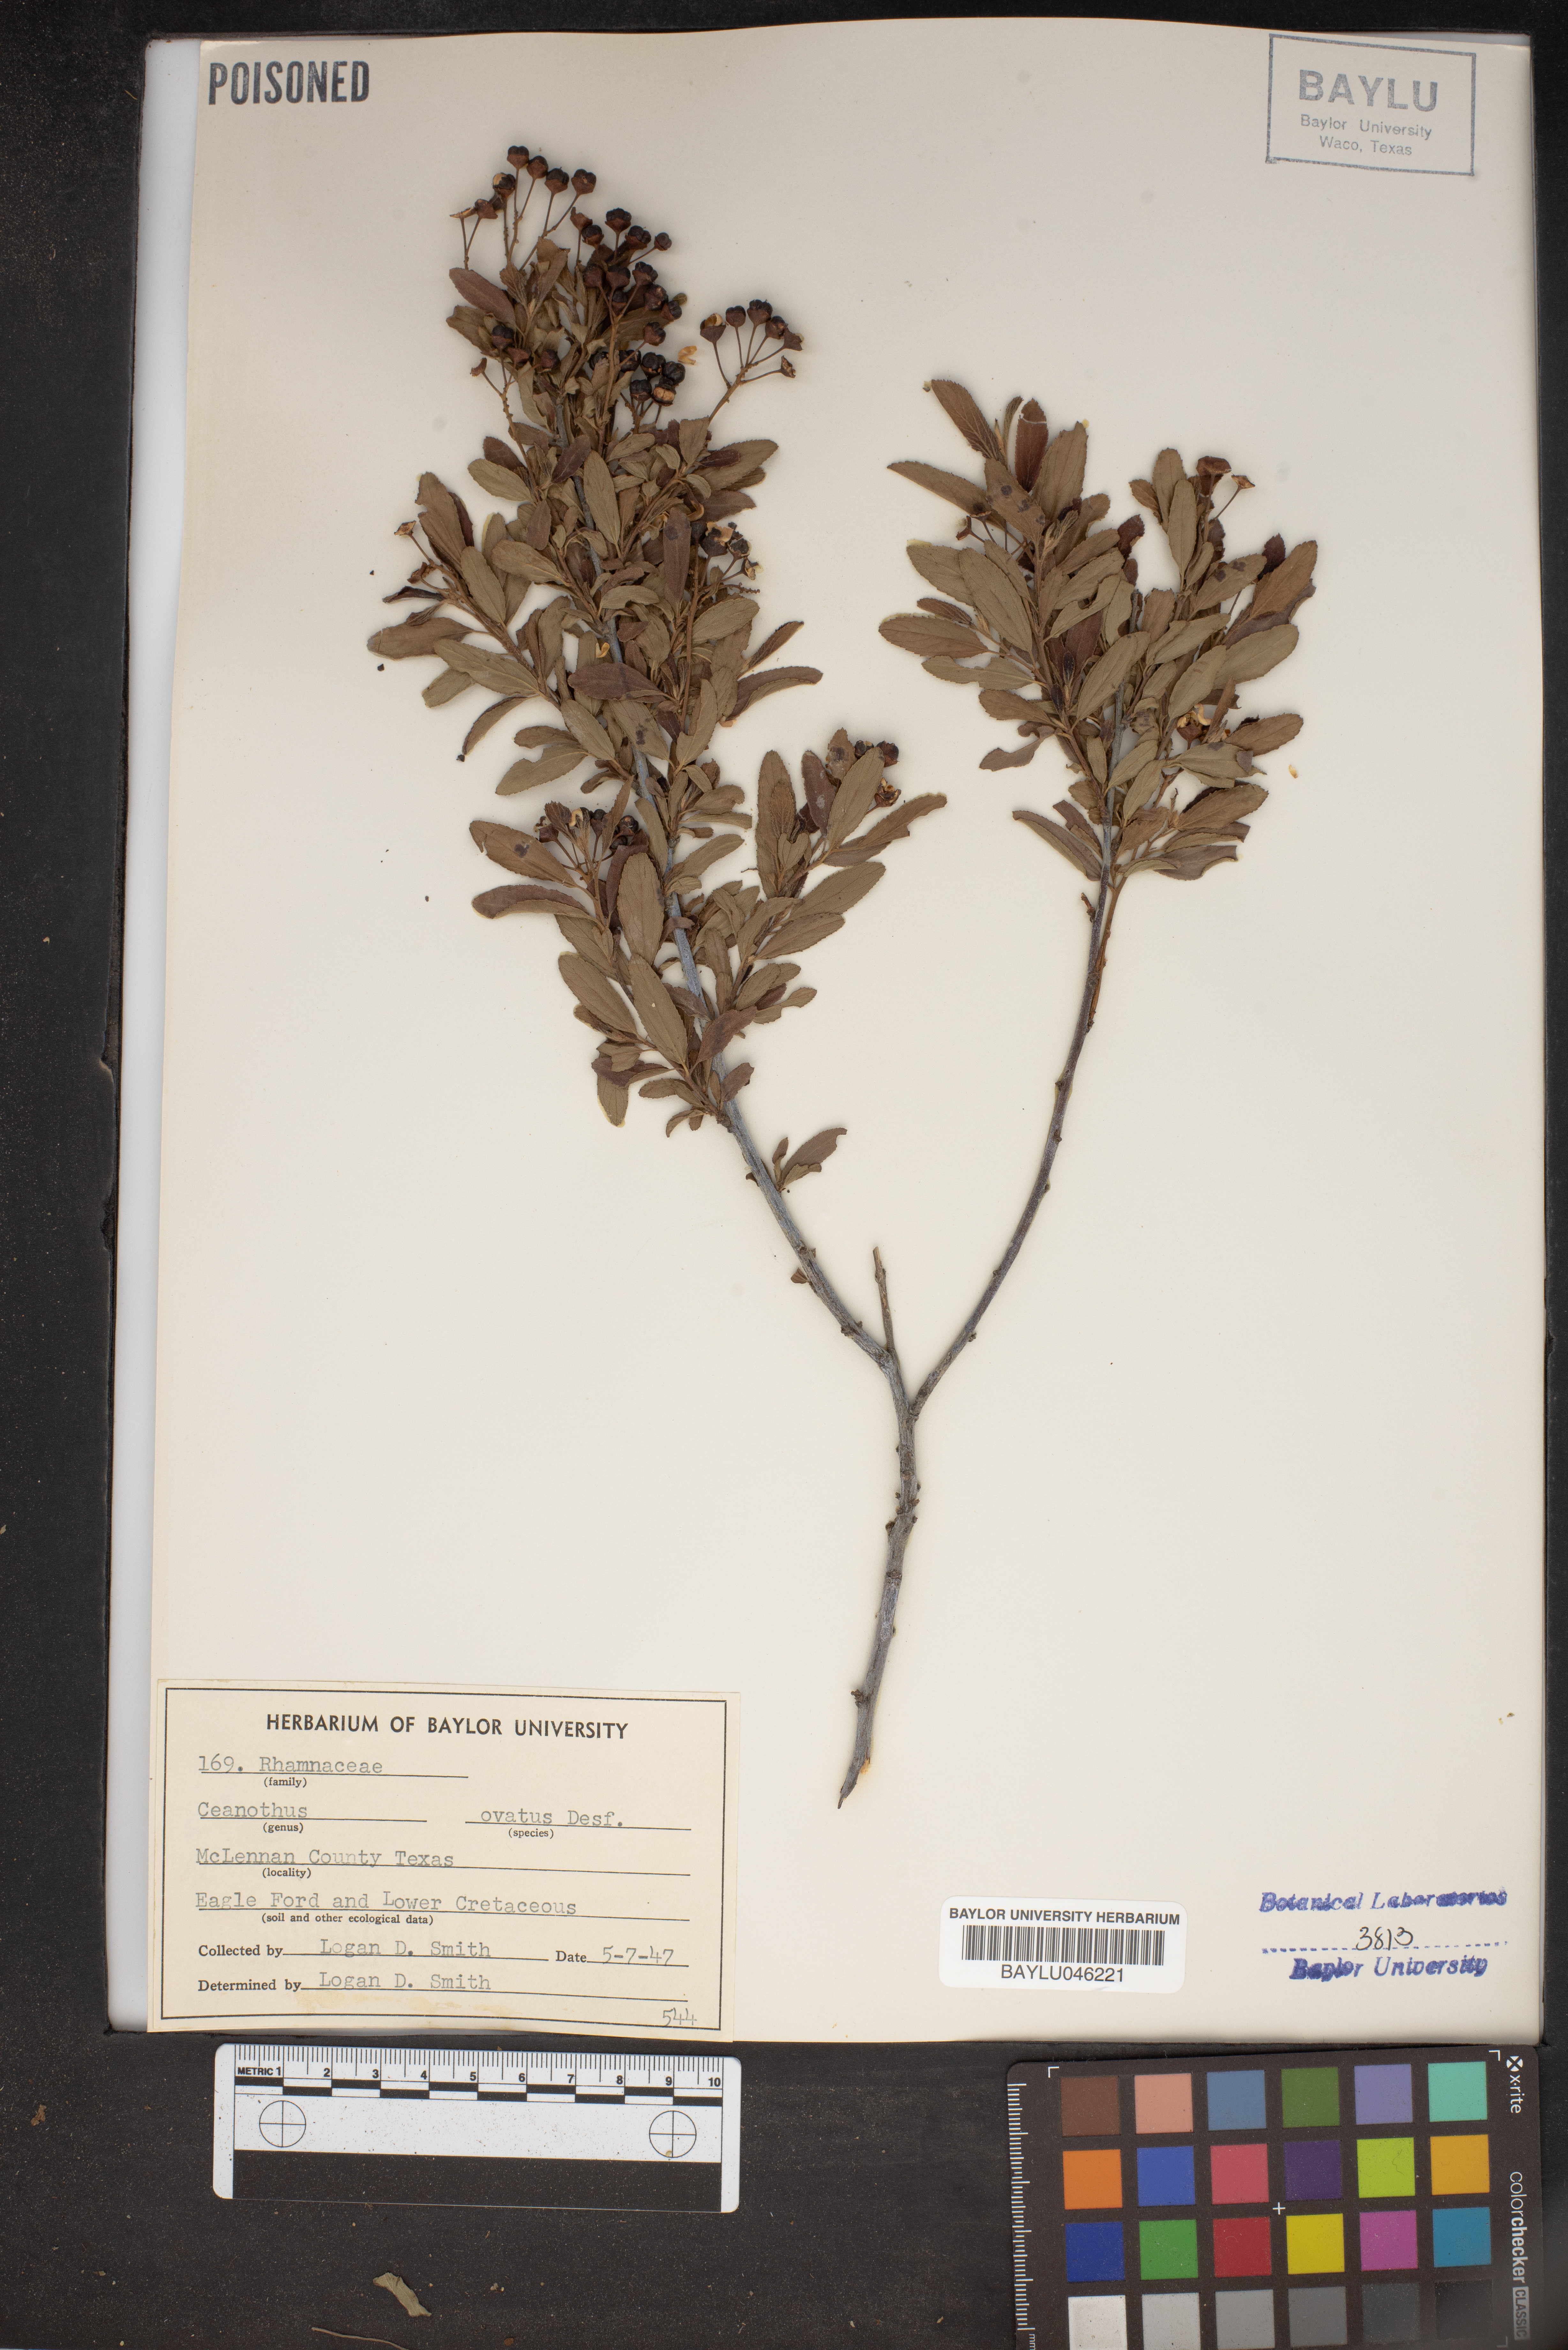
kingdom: Plantae
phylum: Tracheophyta
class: Magnoliopsida
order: Rosales
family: Rhamnaceae
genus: Ceanothus
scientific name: Ceanothus herbaceus
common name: Inland ceanothus
